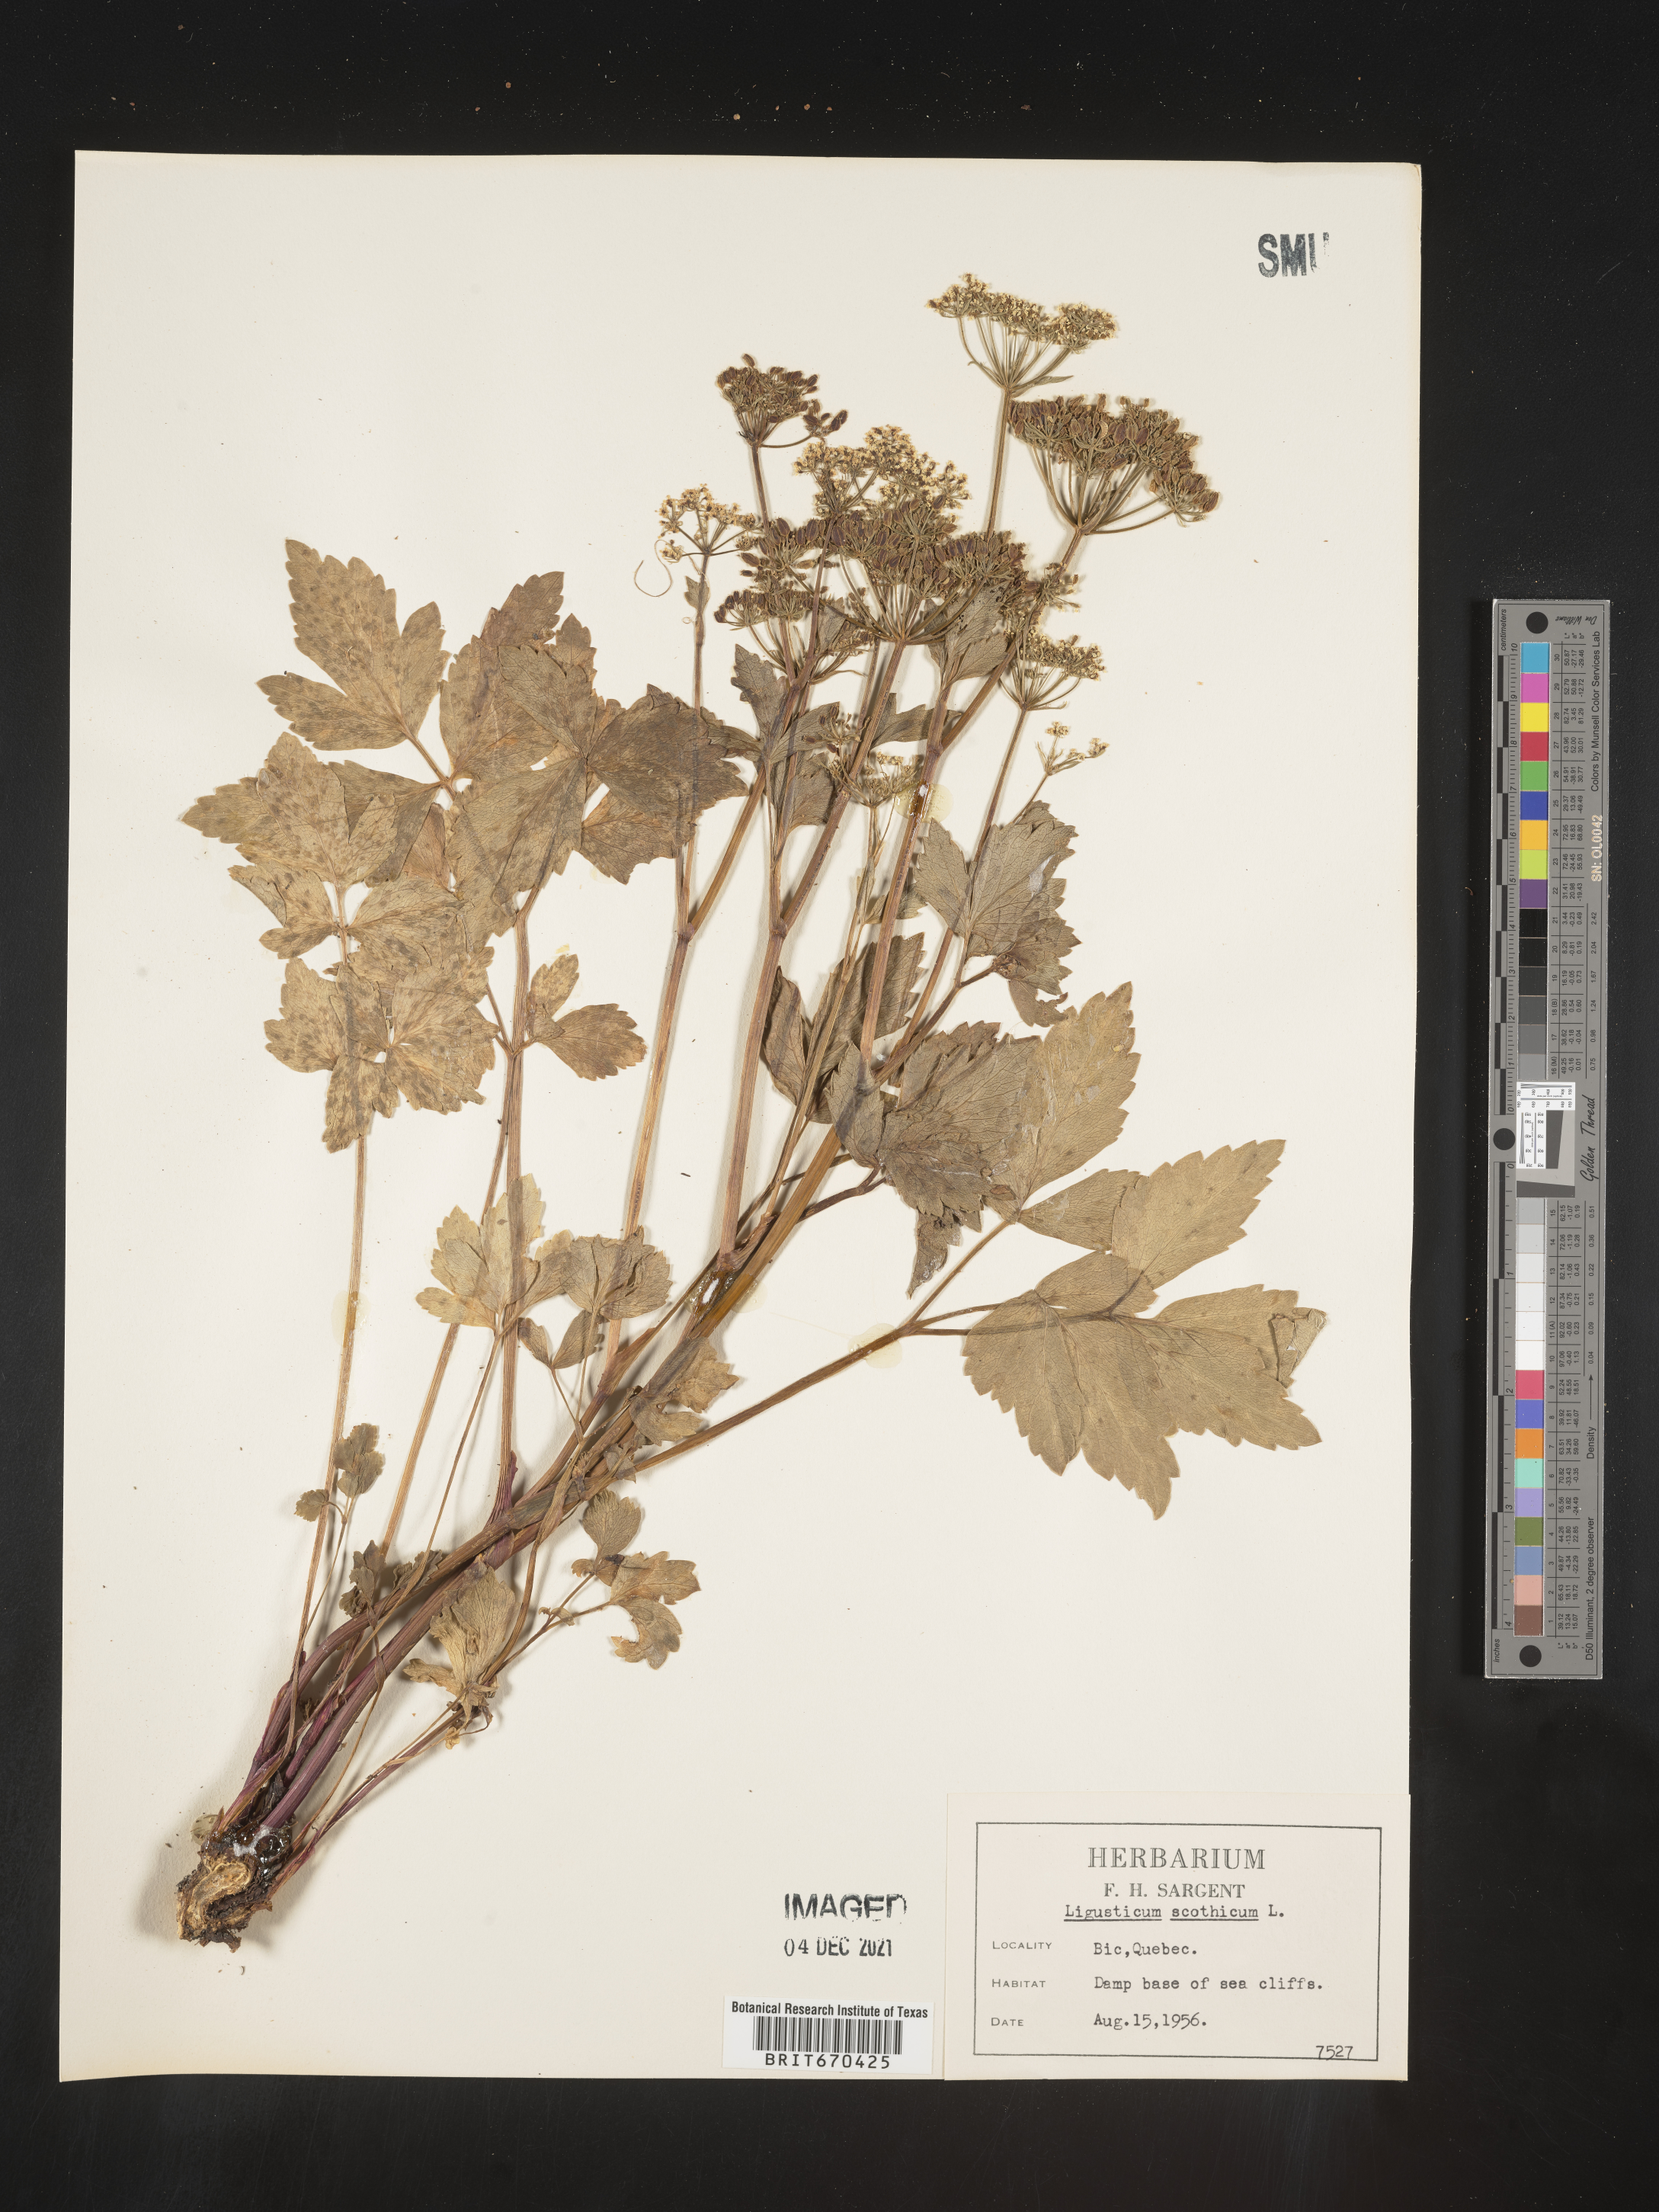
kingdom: Plantae
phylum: Tracheophyta
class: Magnoliopsida
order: Apiales
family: Apiaceae
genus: Ligusticum
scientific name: Ligusticum scothicum
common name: Beach lovage
